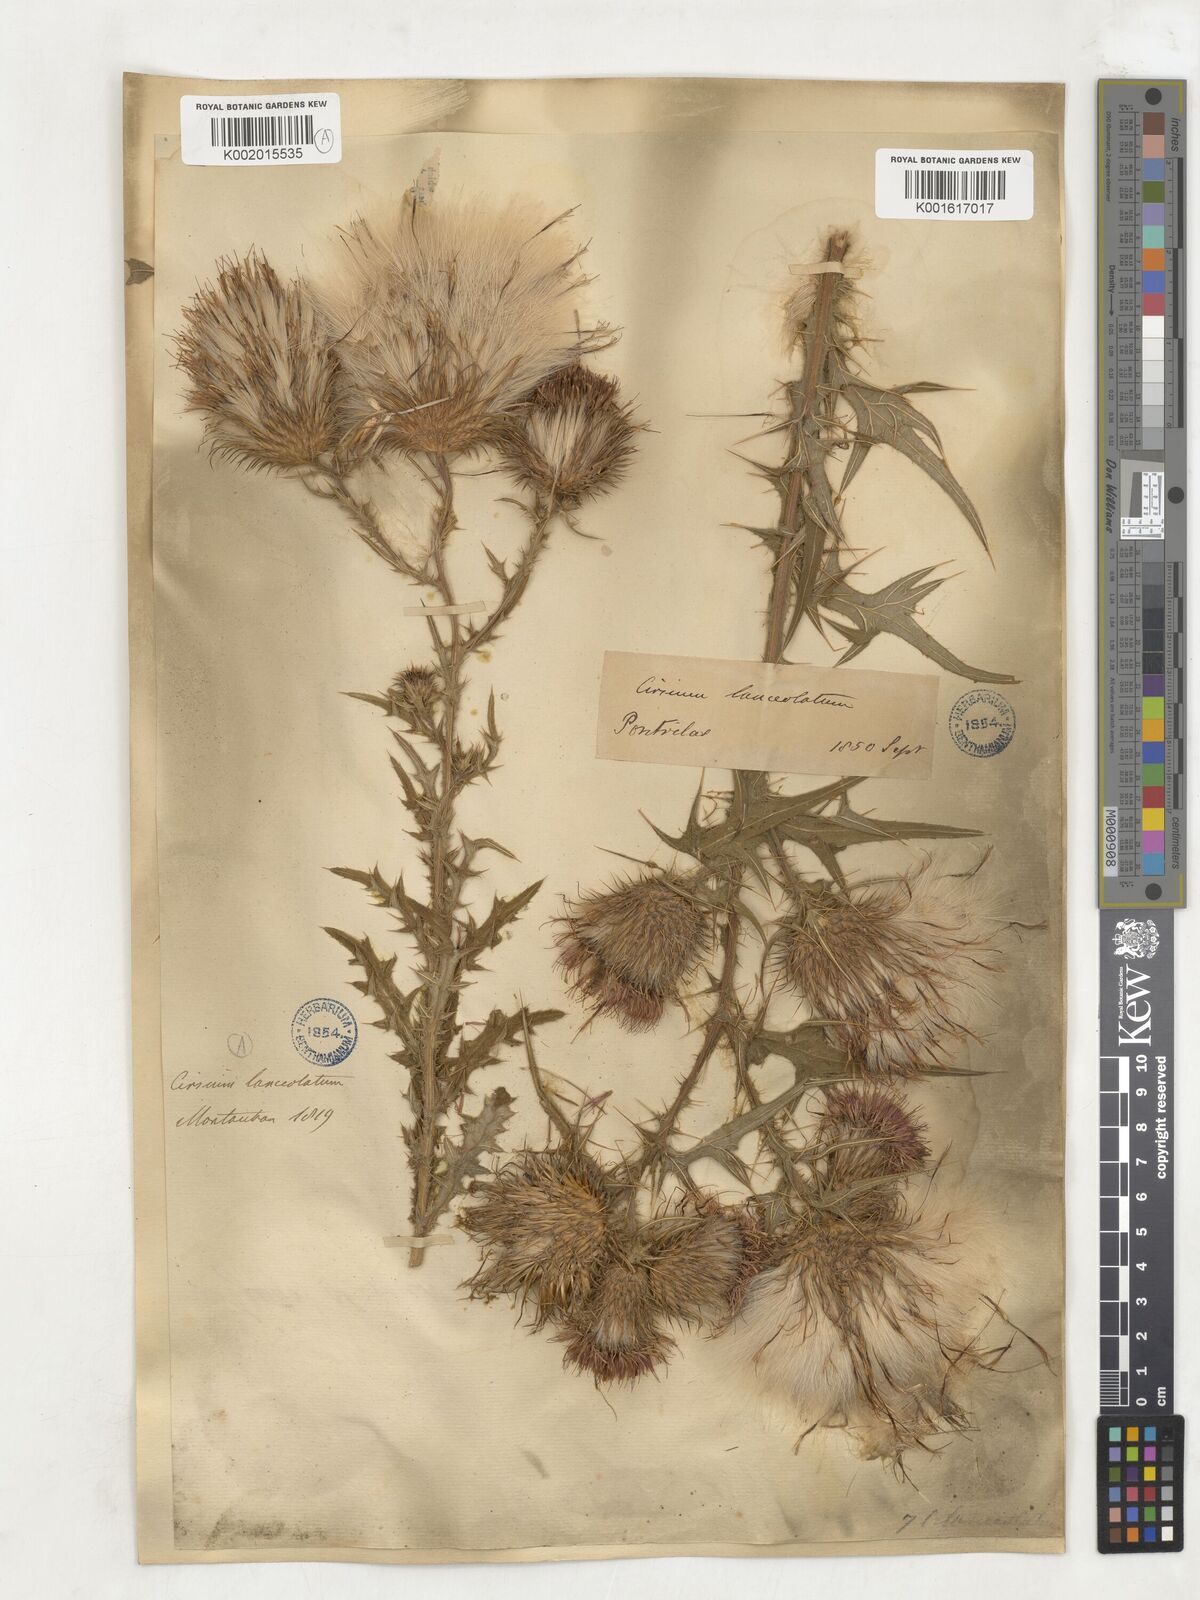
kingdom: Plantae
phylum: Tracheophyta
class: Magnoliopsida
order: Asterales
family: Asteraceae
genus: Cirsium
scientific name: Cirsium
